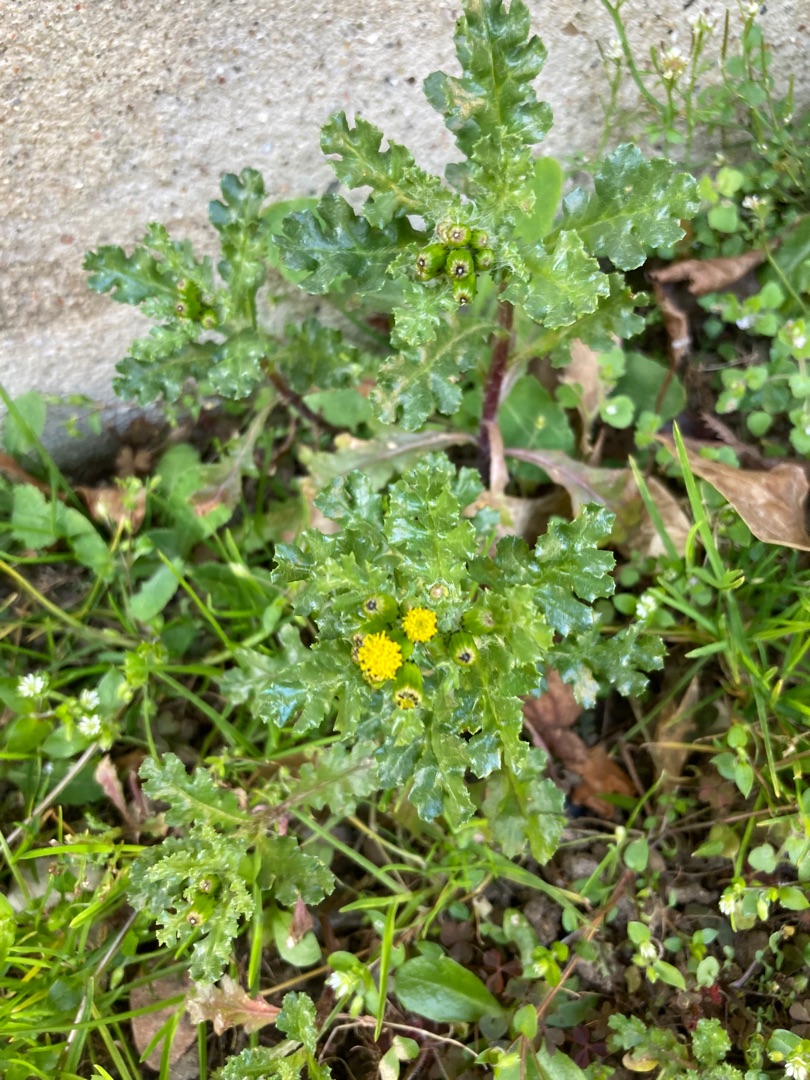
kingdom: Plantae
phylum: Tracheophyta
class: Magnoliopsida
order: Asterales
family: Asteraceae
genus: Senecio
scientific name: Senecio vulgaris
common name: Almindelig brandbæger
